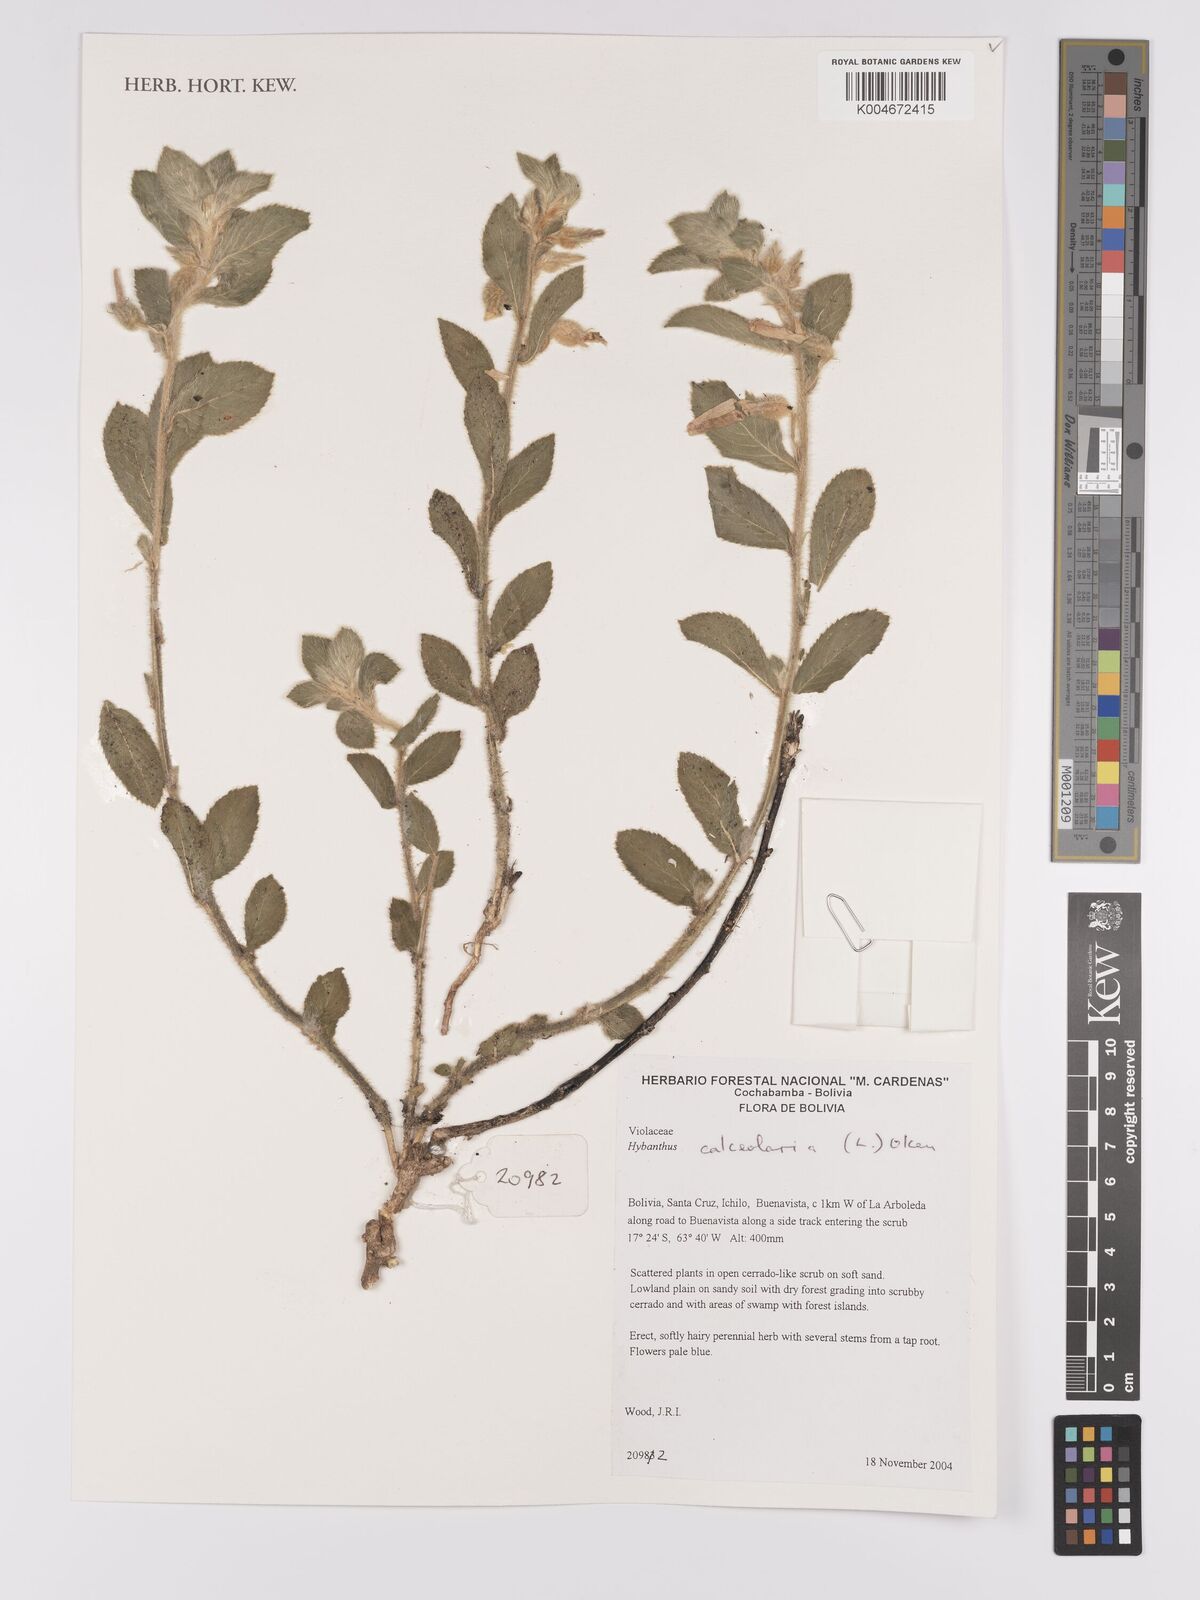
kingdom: Plantae
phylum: Tracheophyta
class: Magnoliopsida
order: Malpighiales
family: Violaceae
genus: Pombalia
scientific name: Pombalia calceolaria
